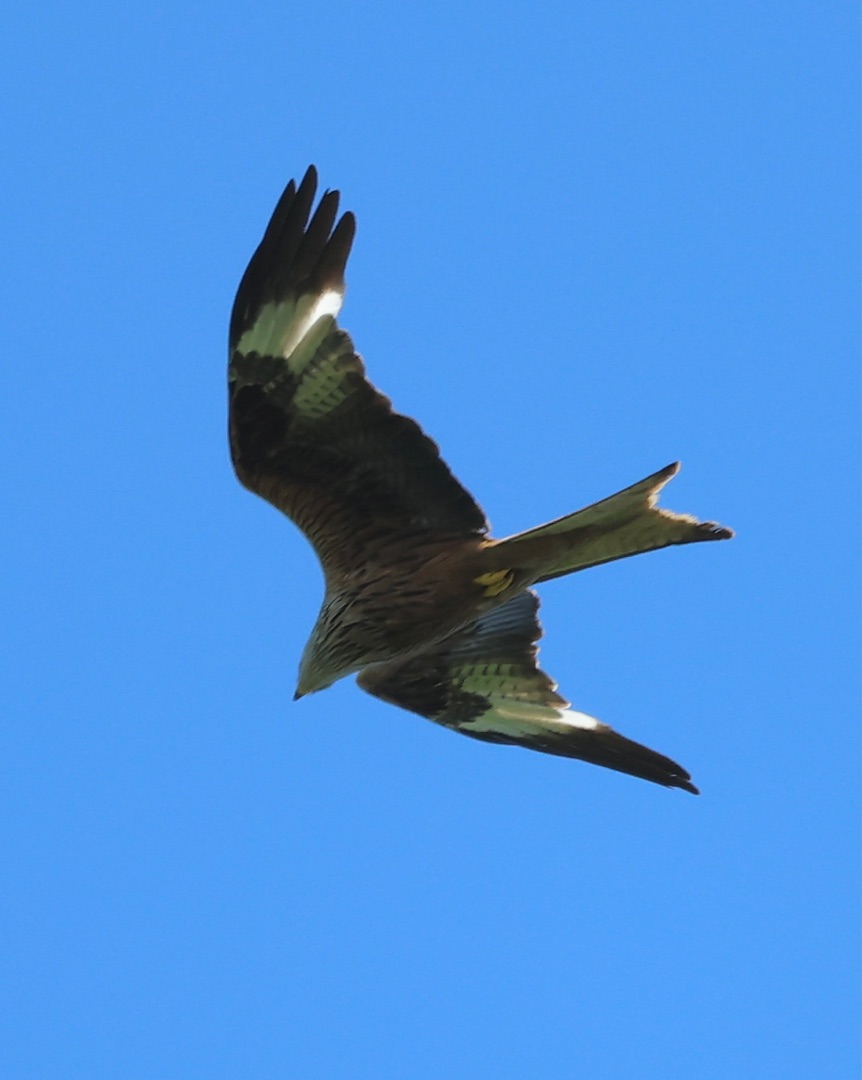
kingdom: Animalia
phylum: Chordata
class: Aves
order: Accipitriformes
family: Accipitridae
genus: Milvus
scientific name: Milvus milvus
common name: Rød glente
